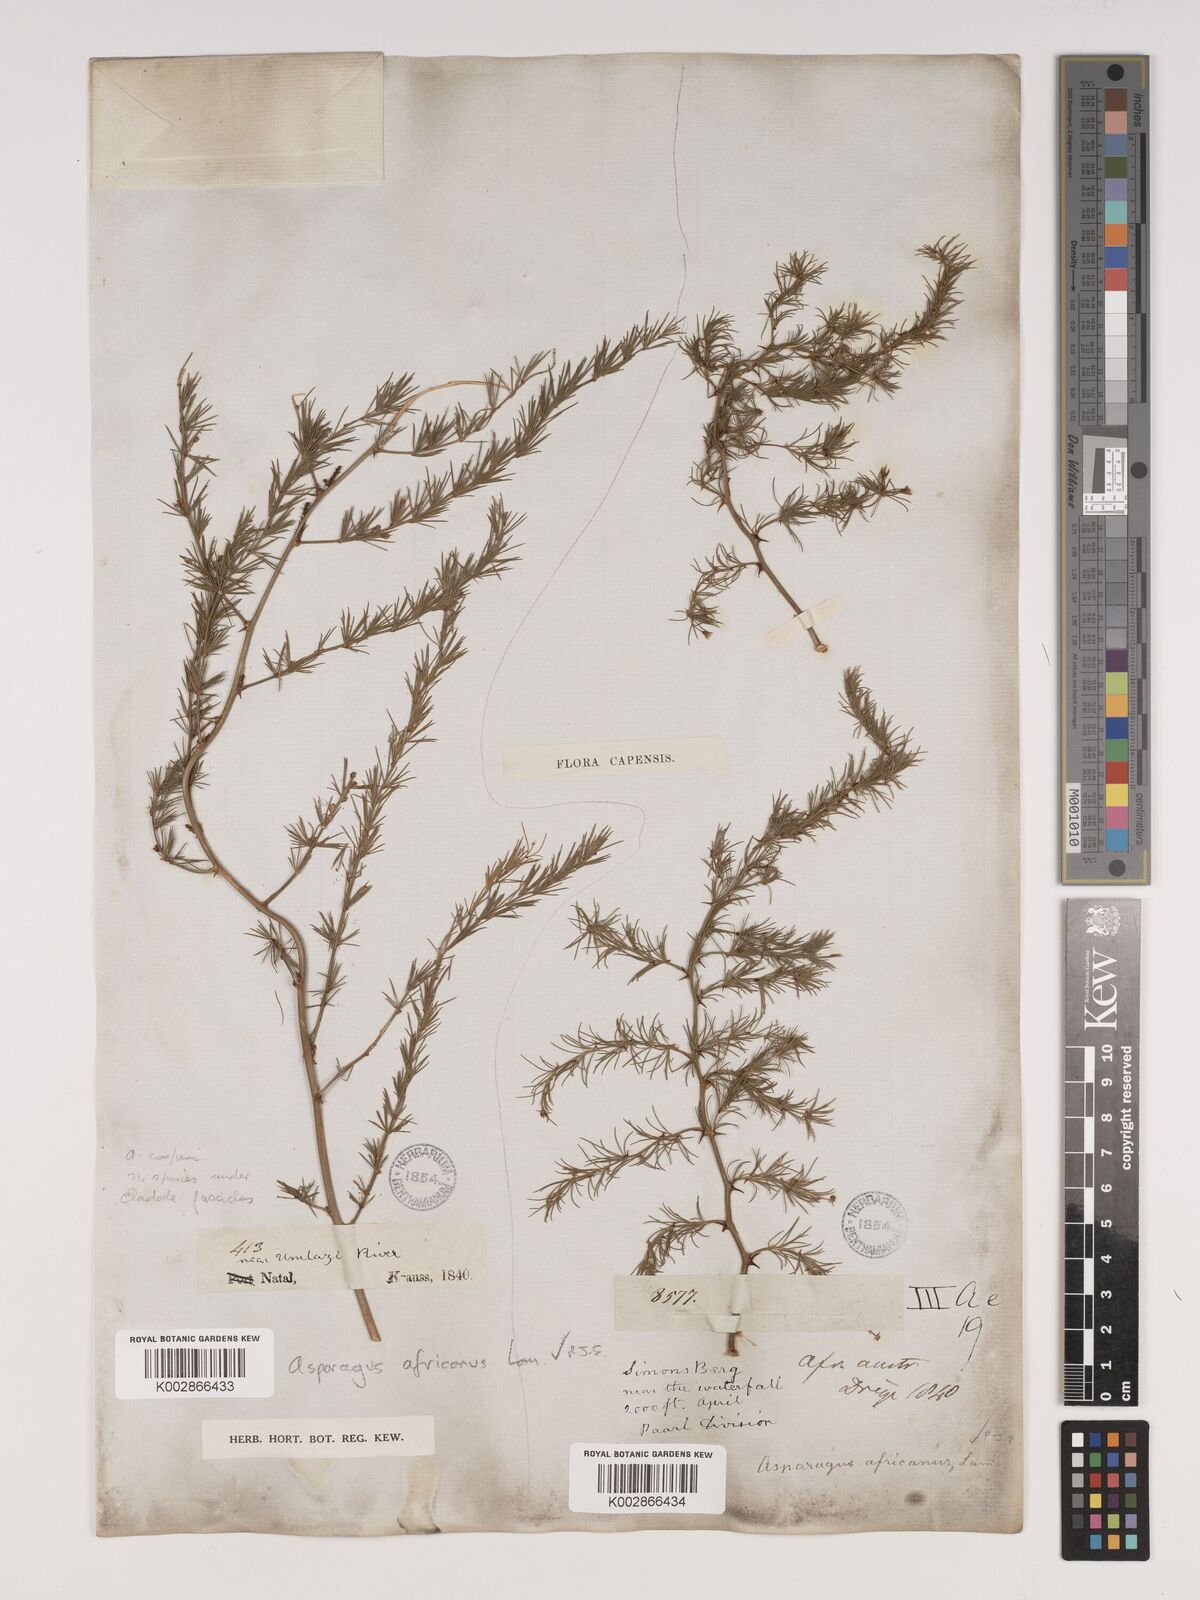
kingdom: Plantae
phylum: Tracheophyta
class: Liliopsida
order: Asparagales
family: Asparagaceae
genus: Asparagus
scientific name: Asparagus africanus
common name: Asparagus-fern
